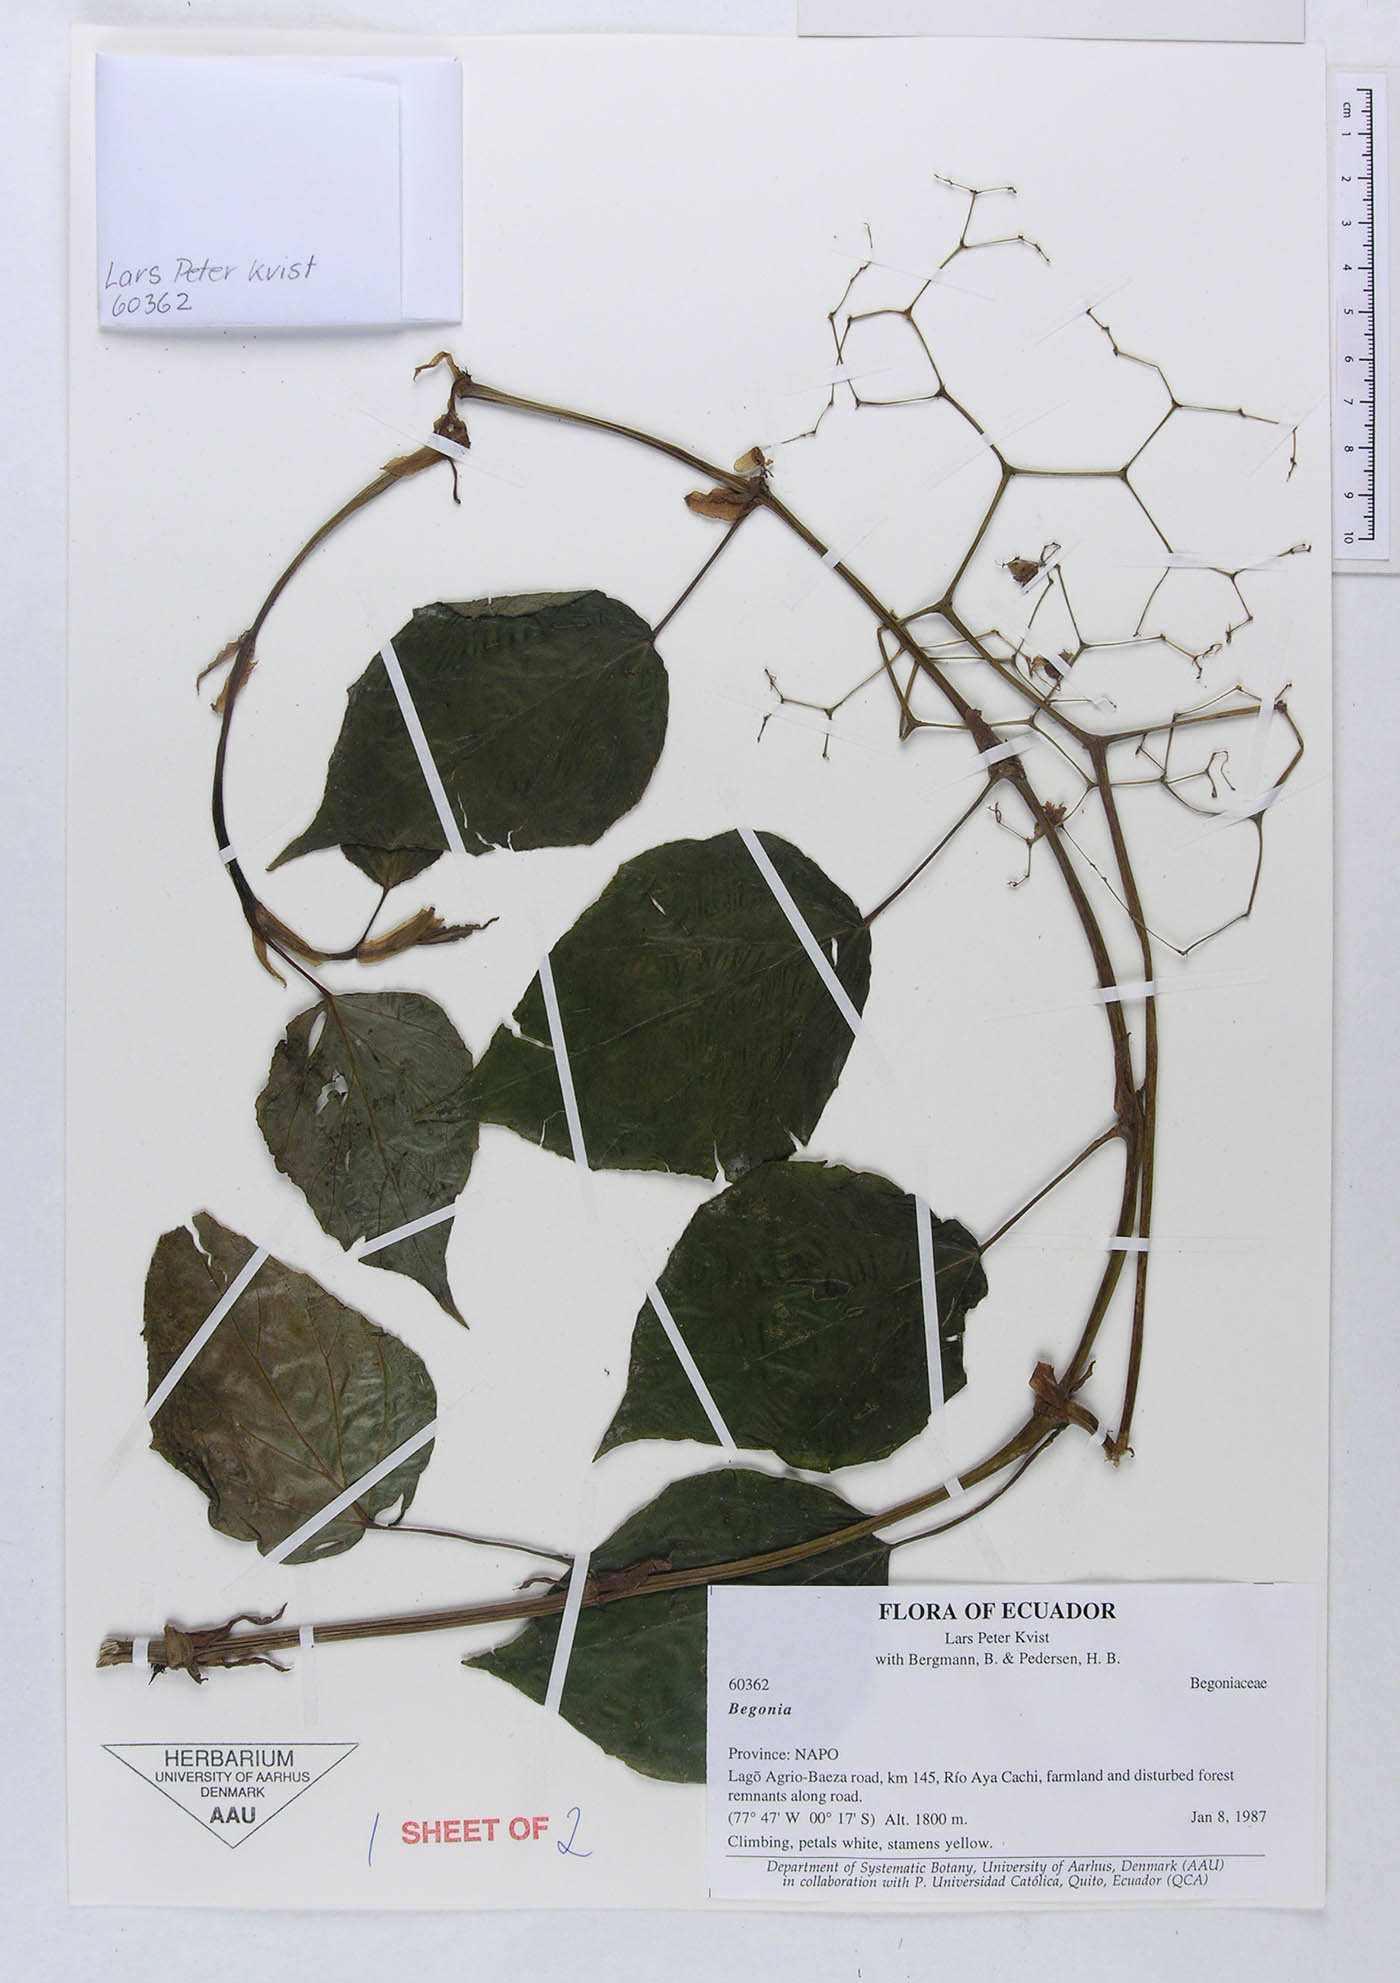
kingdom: Plantae
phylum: Tracheophyta
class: Magnoliopsida
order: Cucurbitales
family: Begoniaceae
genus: Begonia
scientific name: Begonia glabra
